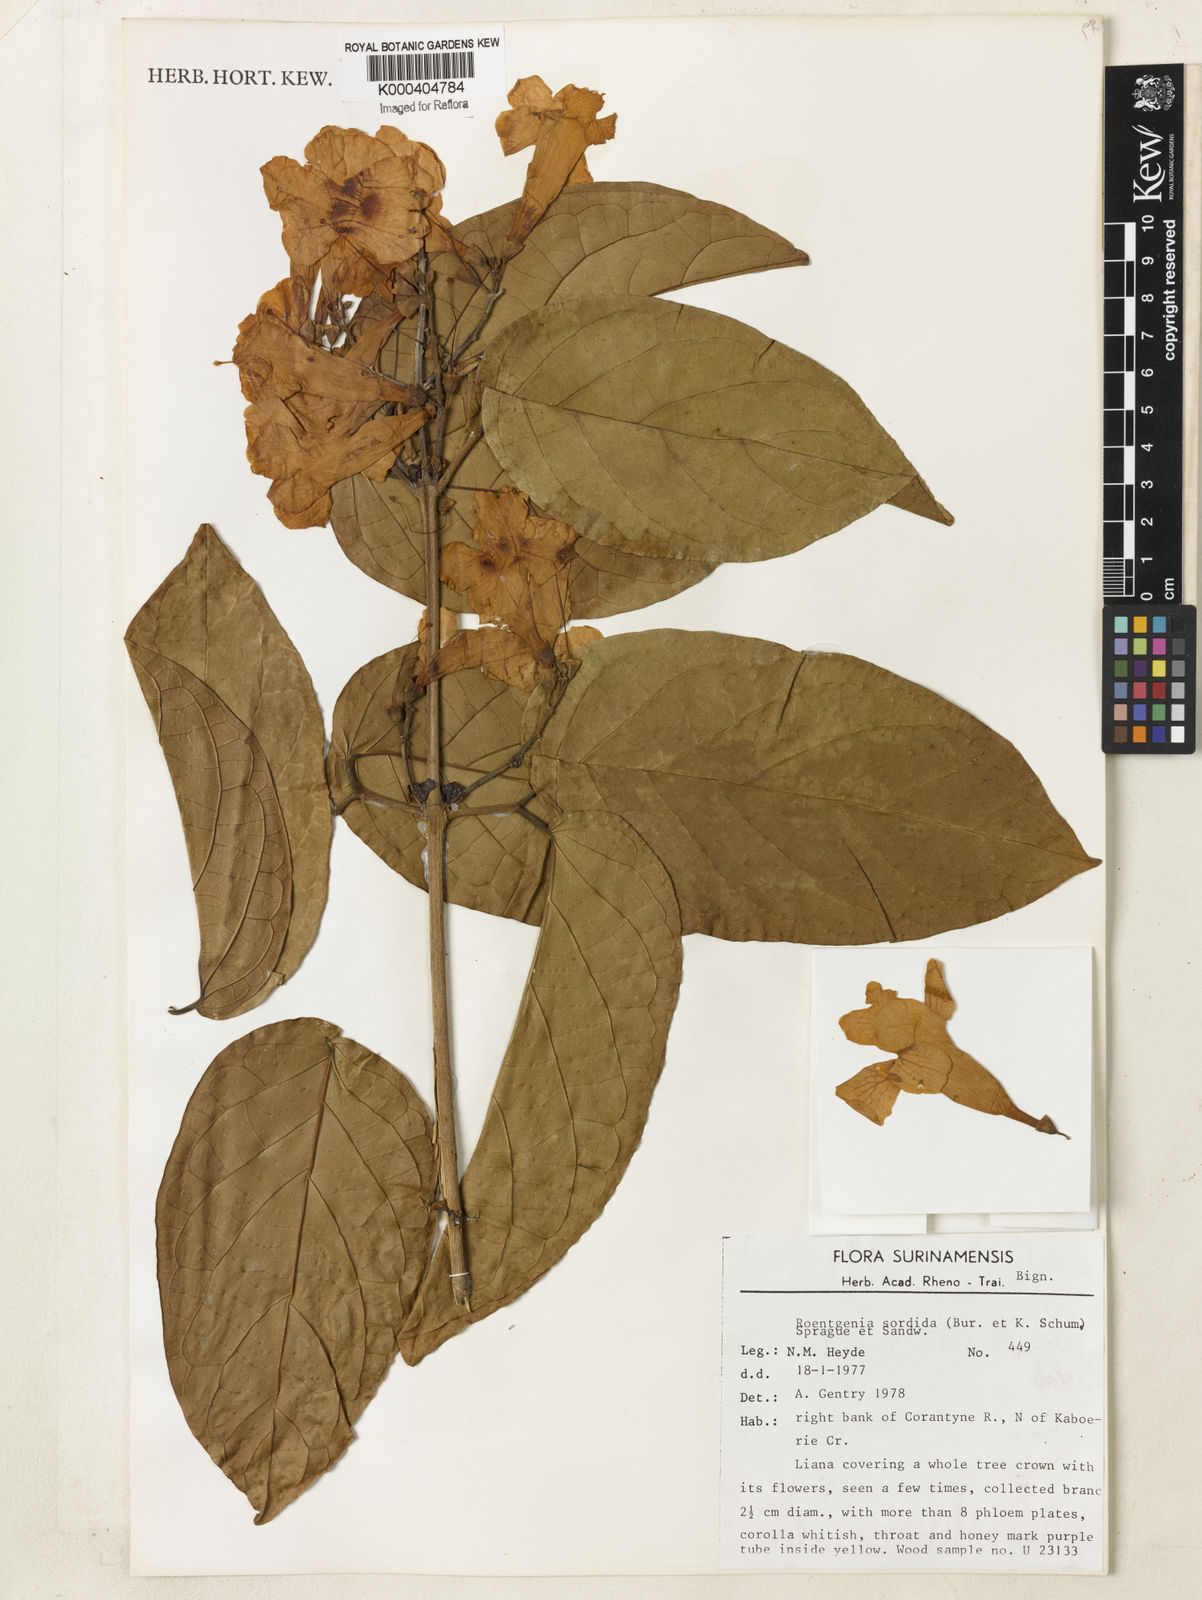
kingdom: Plantae
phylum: Tracheophyta
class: Magnoliopsida
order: Lamiales
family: Bignoniaceae
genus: Bignonia
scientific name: Bignonia sordida
